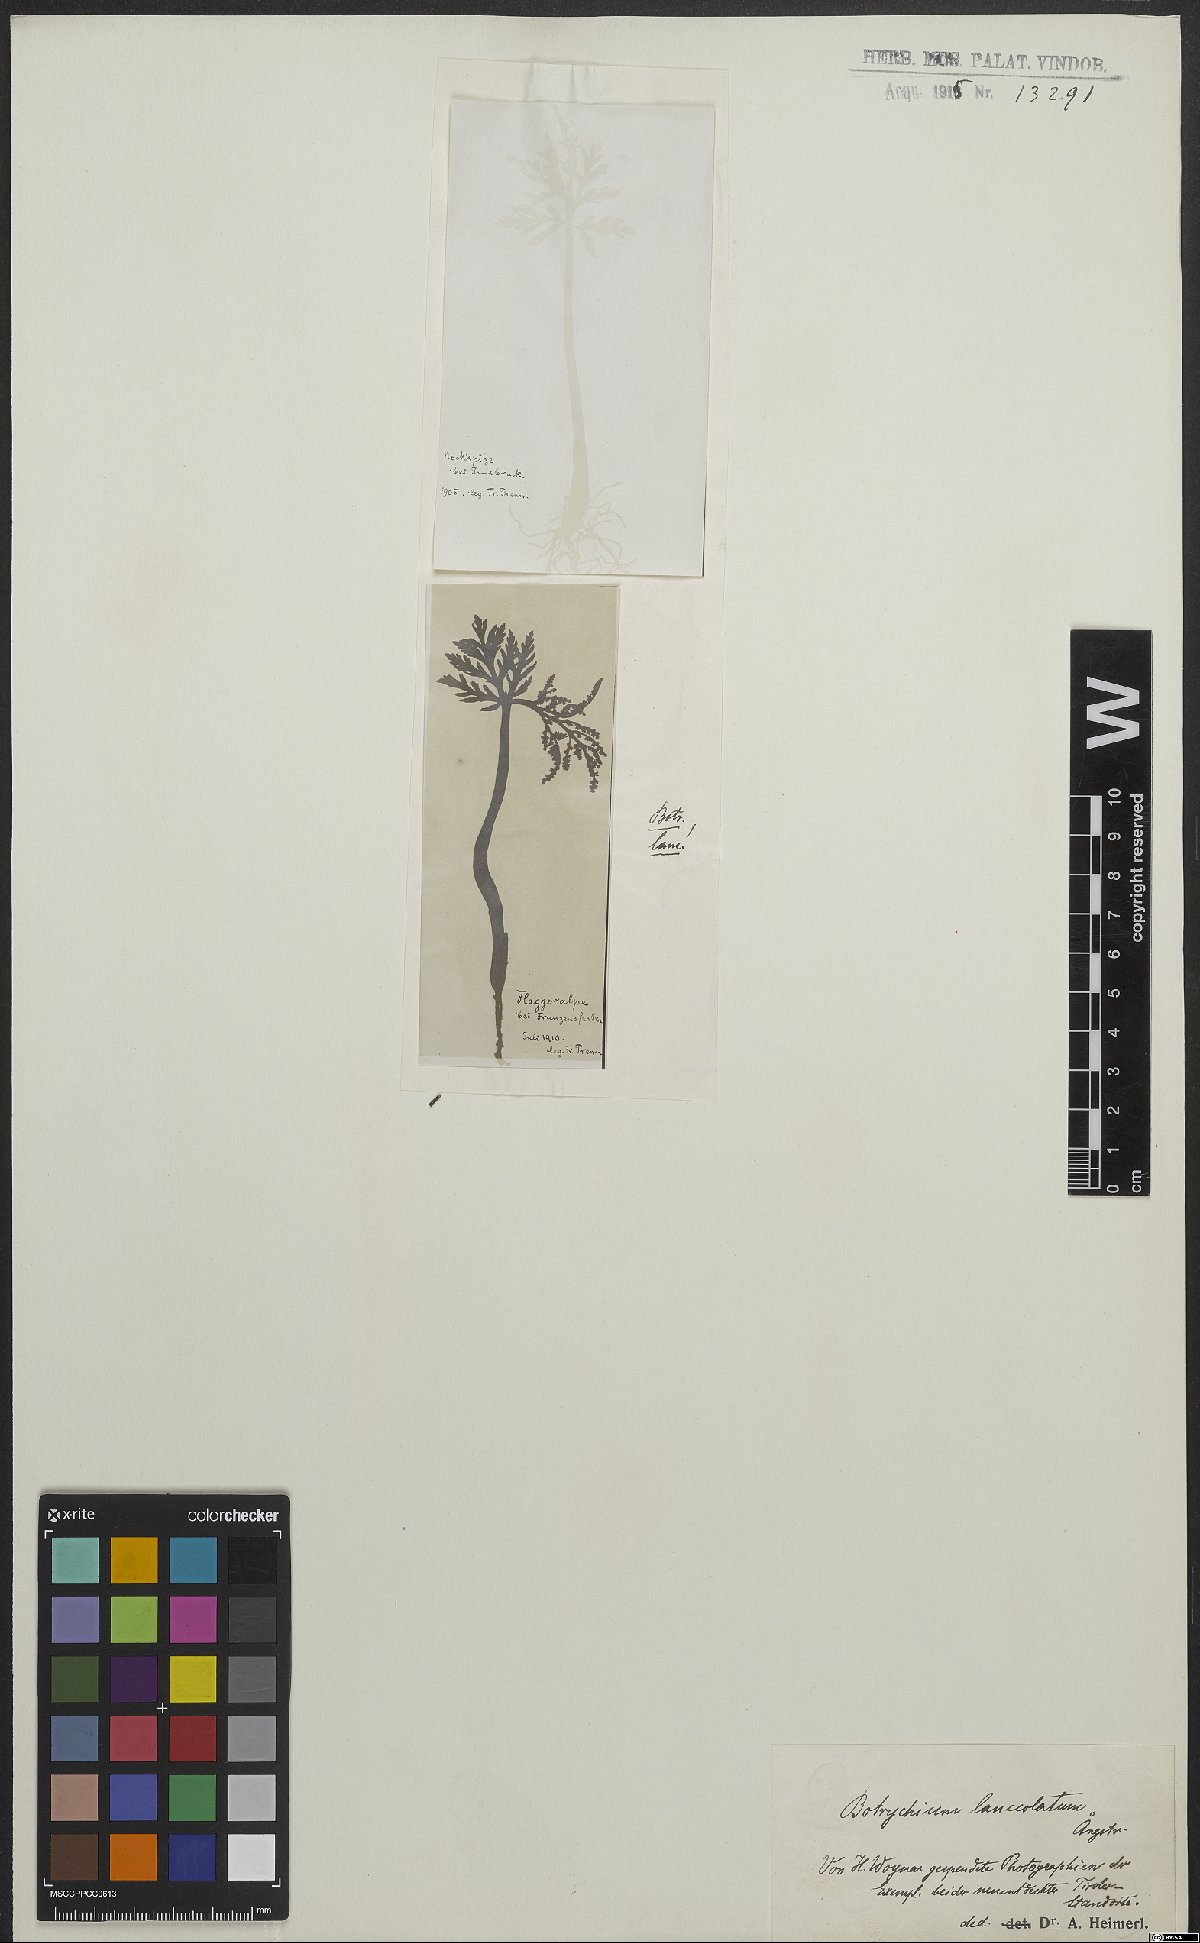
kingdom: Plantae
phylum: Tracheophyta
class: Polypodiopsida
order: Ophioglossales
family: Ophioglossaceae
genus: Botrychium
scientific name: Botrychium lanceolatum
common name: Lance-leaved moonwort
